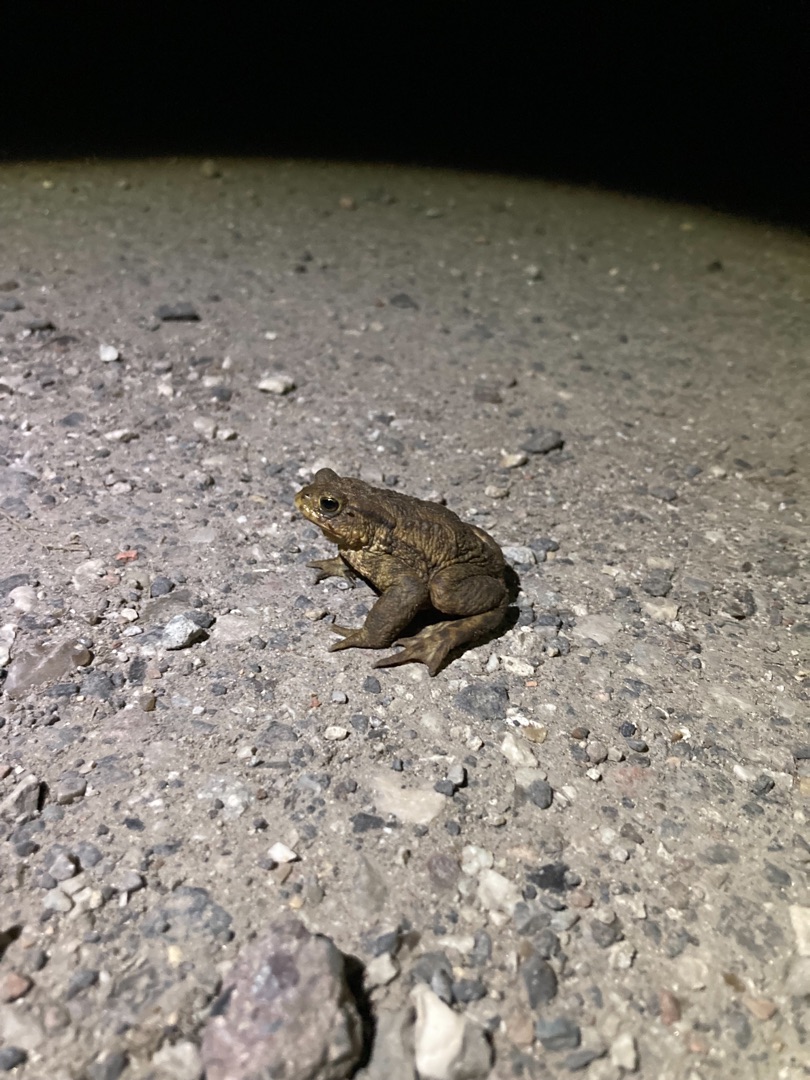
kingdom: Animalia
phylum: Chordata
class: Amphibia
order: Anura
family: Bufonidae
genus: Bufo
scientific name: Bufo bufo
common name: Skrubtudse
